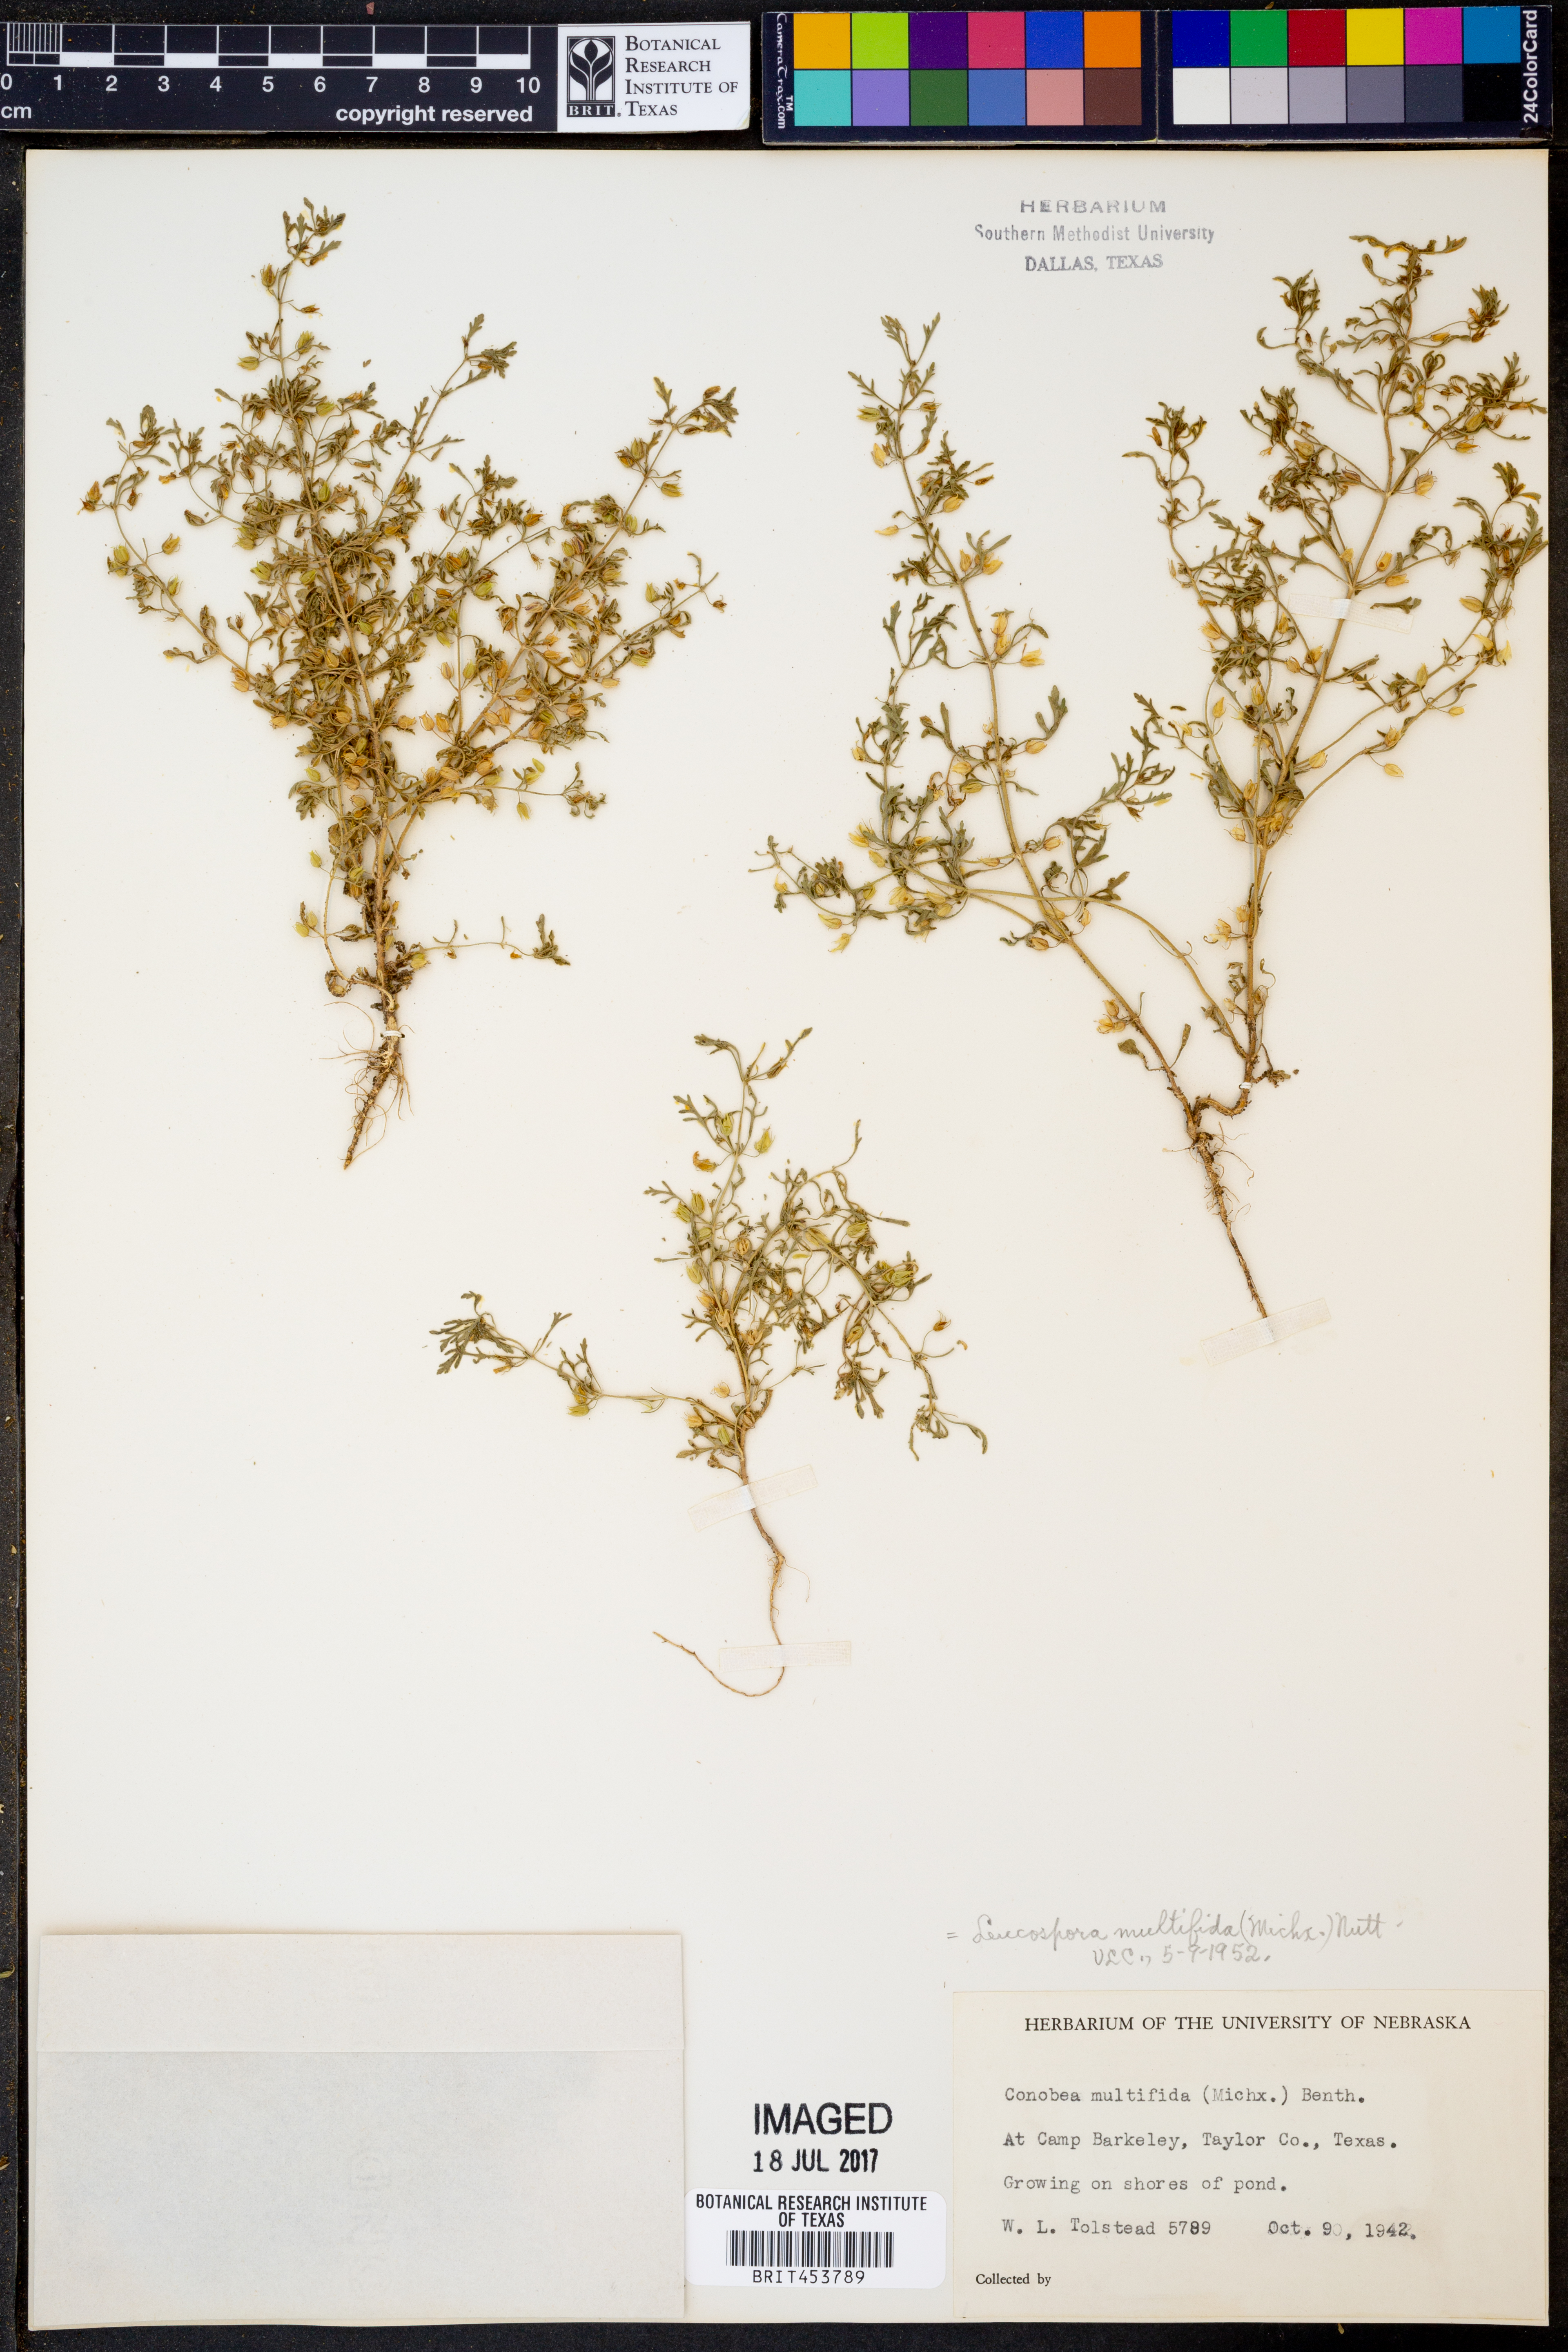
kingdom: Plantae
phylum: Tracheophyta
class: Magnoliopsida
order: Lamiales
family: Plantaginaceae
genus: Leucospora
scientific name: Leucospora multifida
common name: Narrow-leaf paleseed
